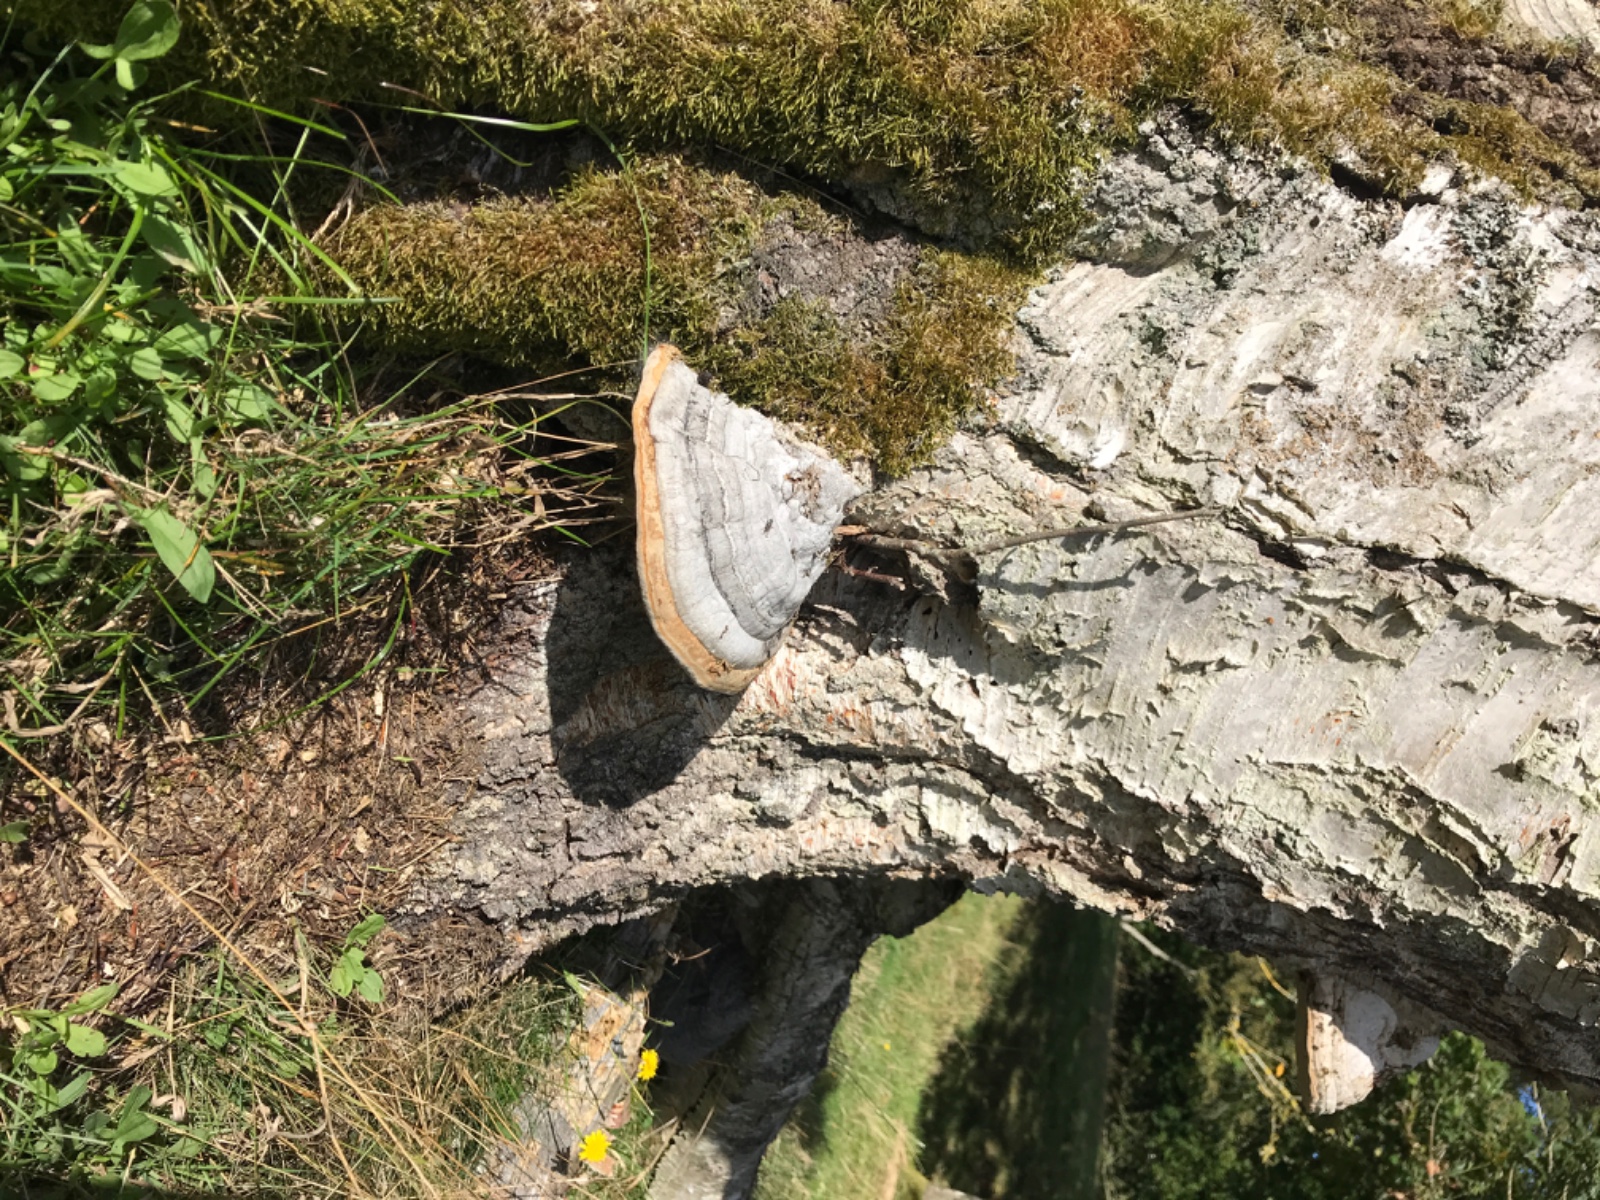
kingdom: Fungi
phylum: Basidiomycota
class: Agaricomycetes
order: Polyporales
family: Polyporaceae
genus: Fomes
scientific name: Fomes fomentarius
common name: tøndersvamp
